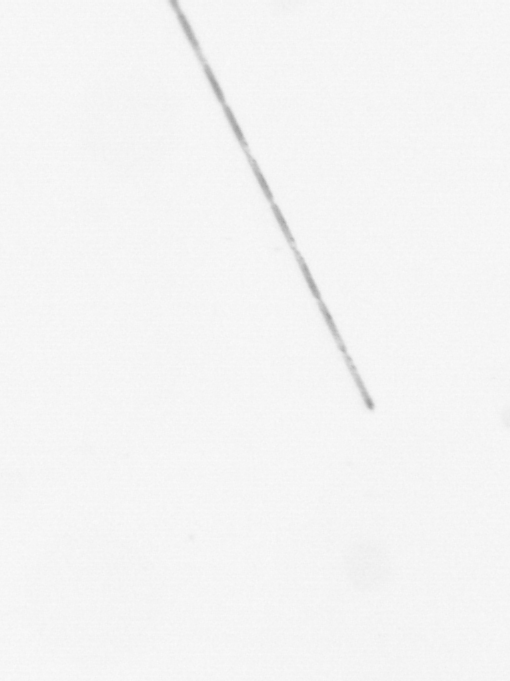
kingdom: Chromista
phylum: Ochrophyta
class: Bacillariophyceae
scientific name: Bacillariophyceae
